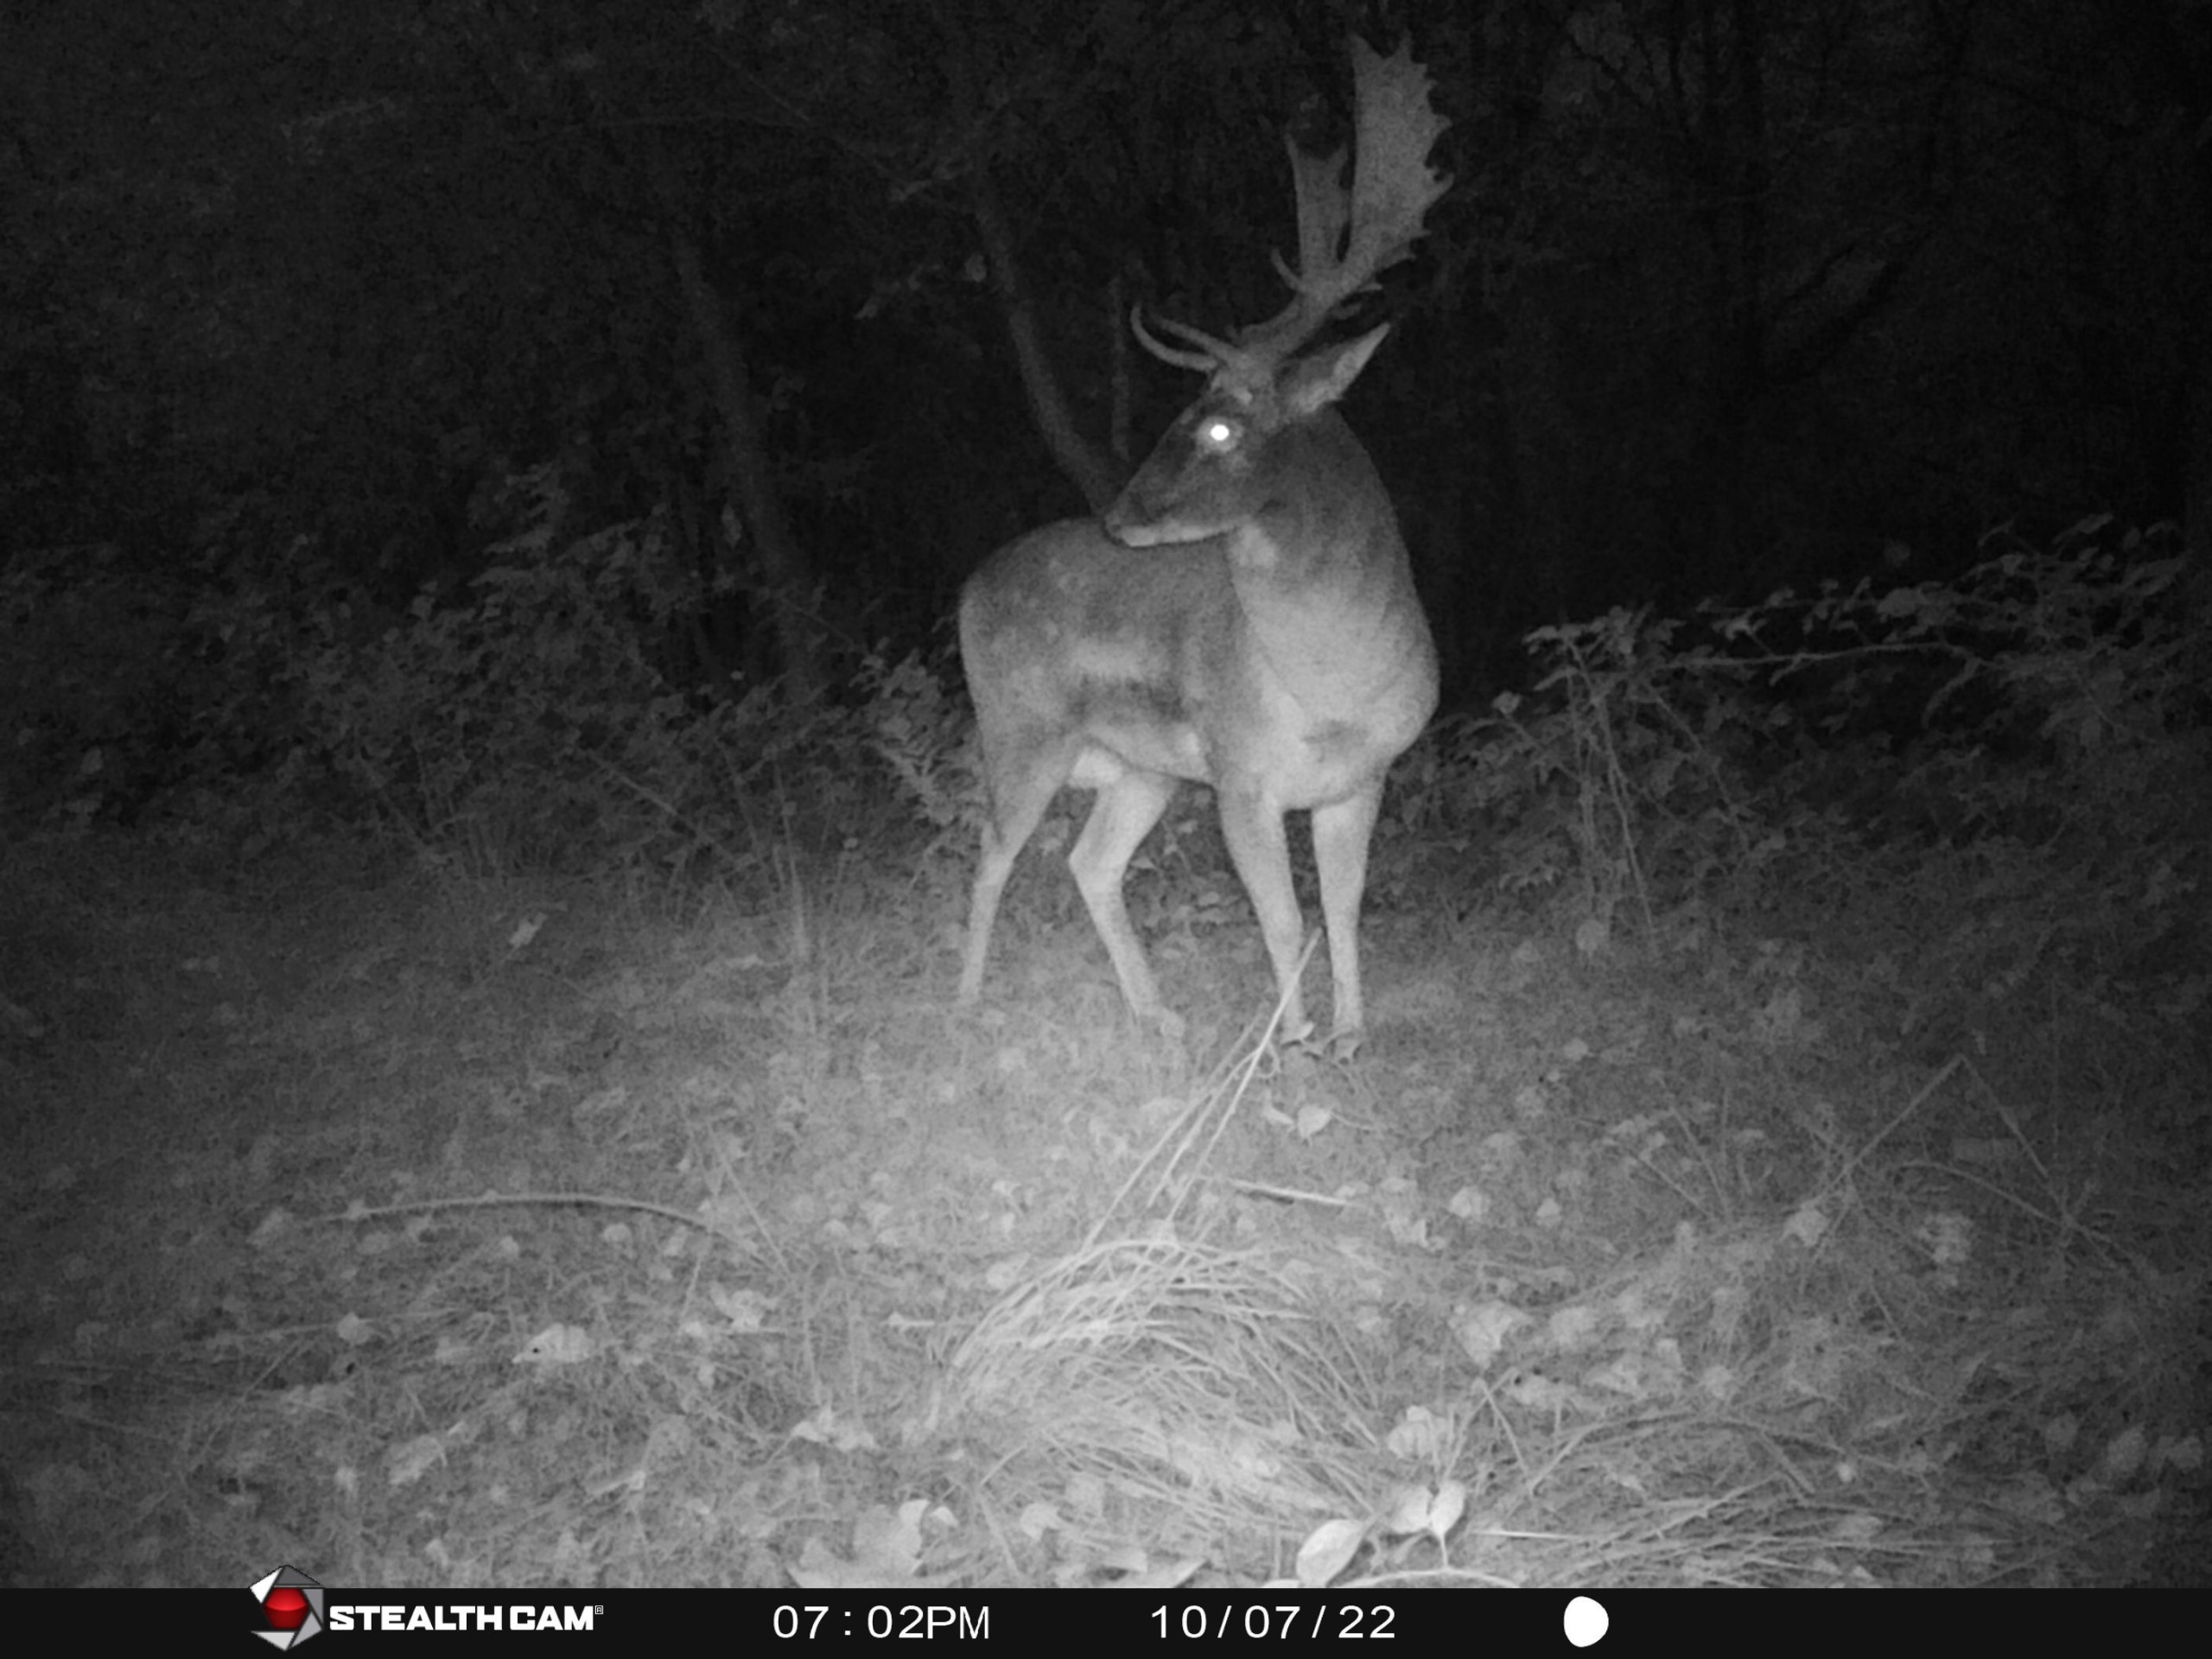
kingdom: Animalia
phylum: Chordata
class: Mammalia
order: Artiodactyla
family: Cervidae
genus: Dama
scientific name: Dama dama
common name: Dådyr
